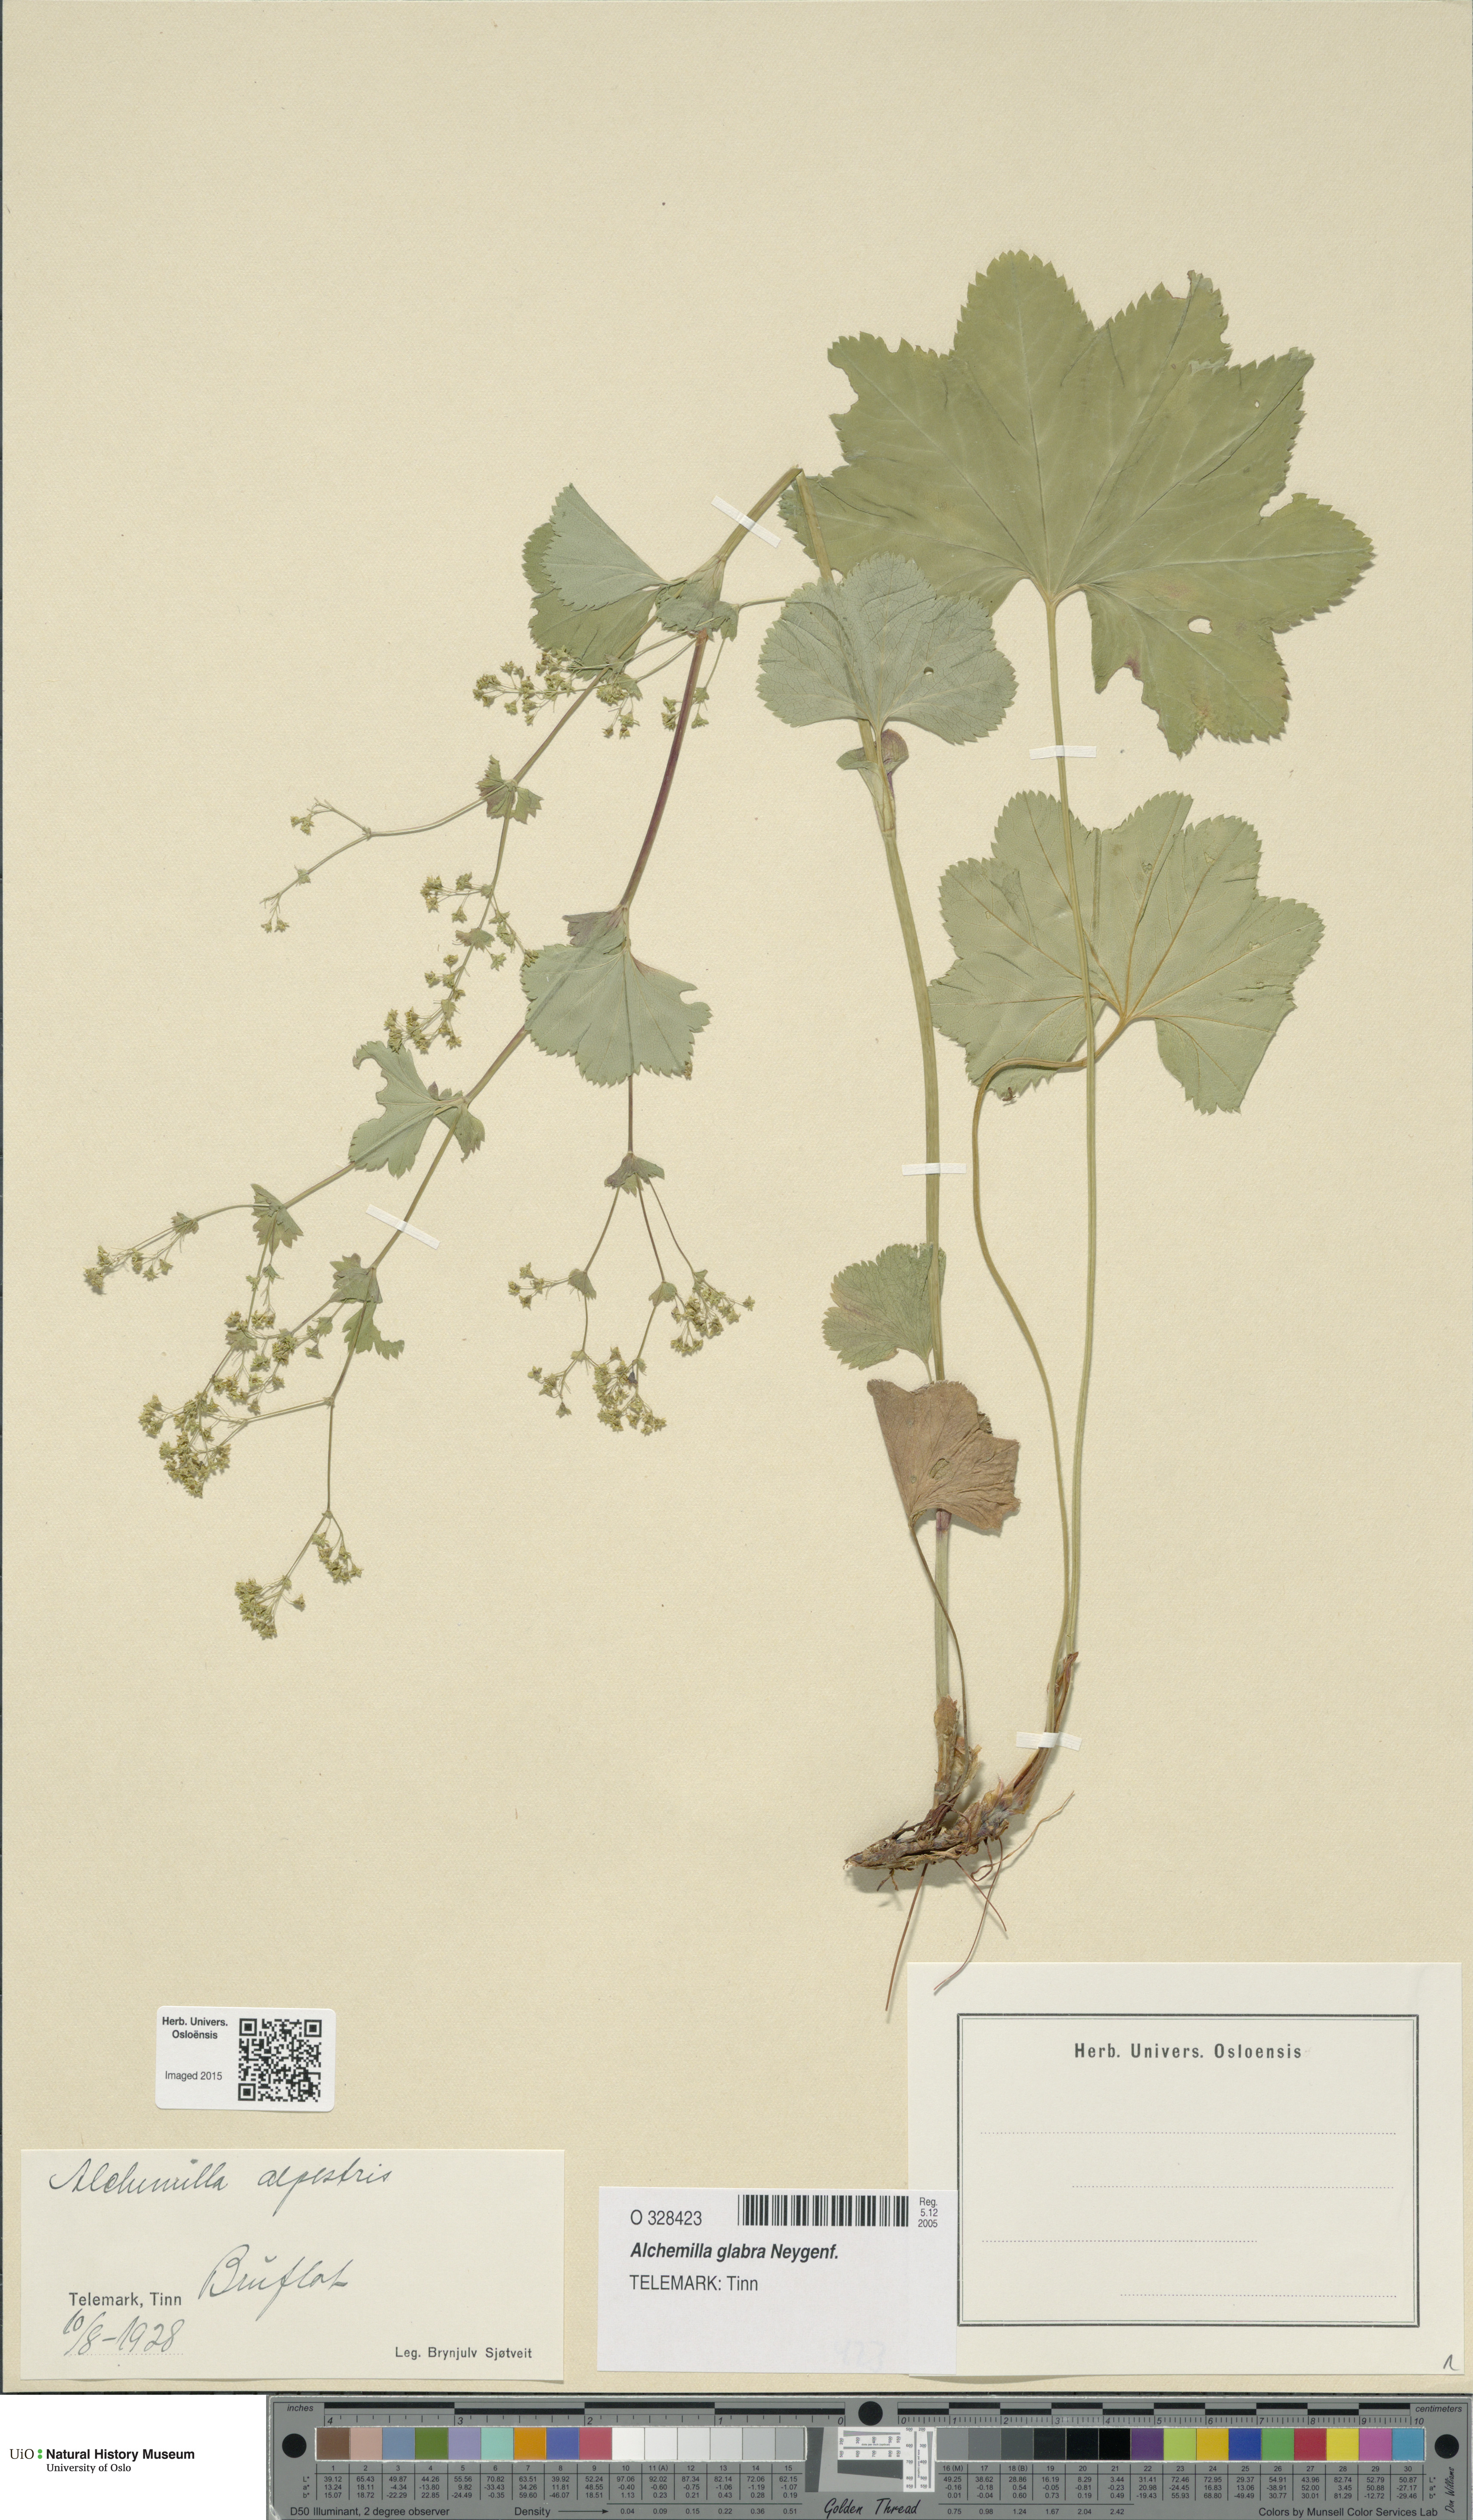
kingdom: Plantae
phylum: Tracheophyta
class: Magnoliopsida
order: Rosales
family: Rosaceae
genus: Alchemilla
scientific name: Alchemilla glabra
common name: Smooth lady's-mantle
